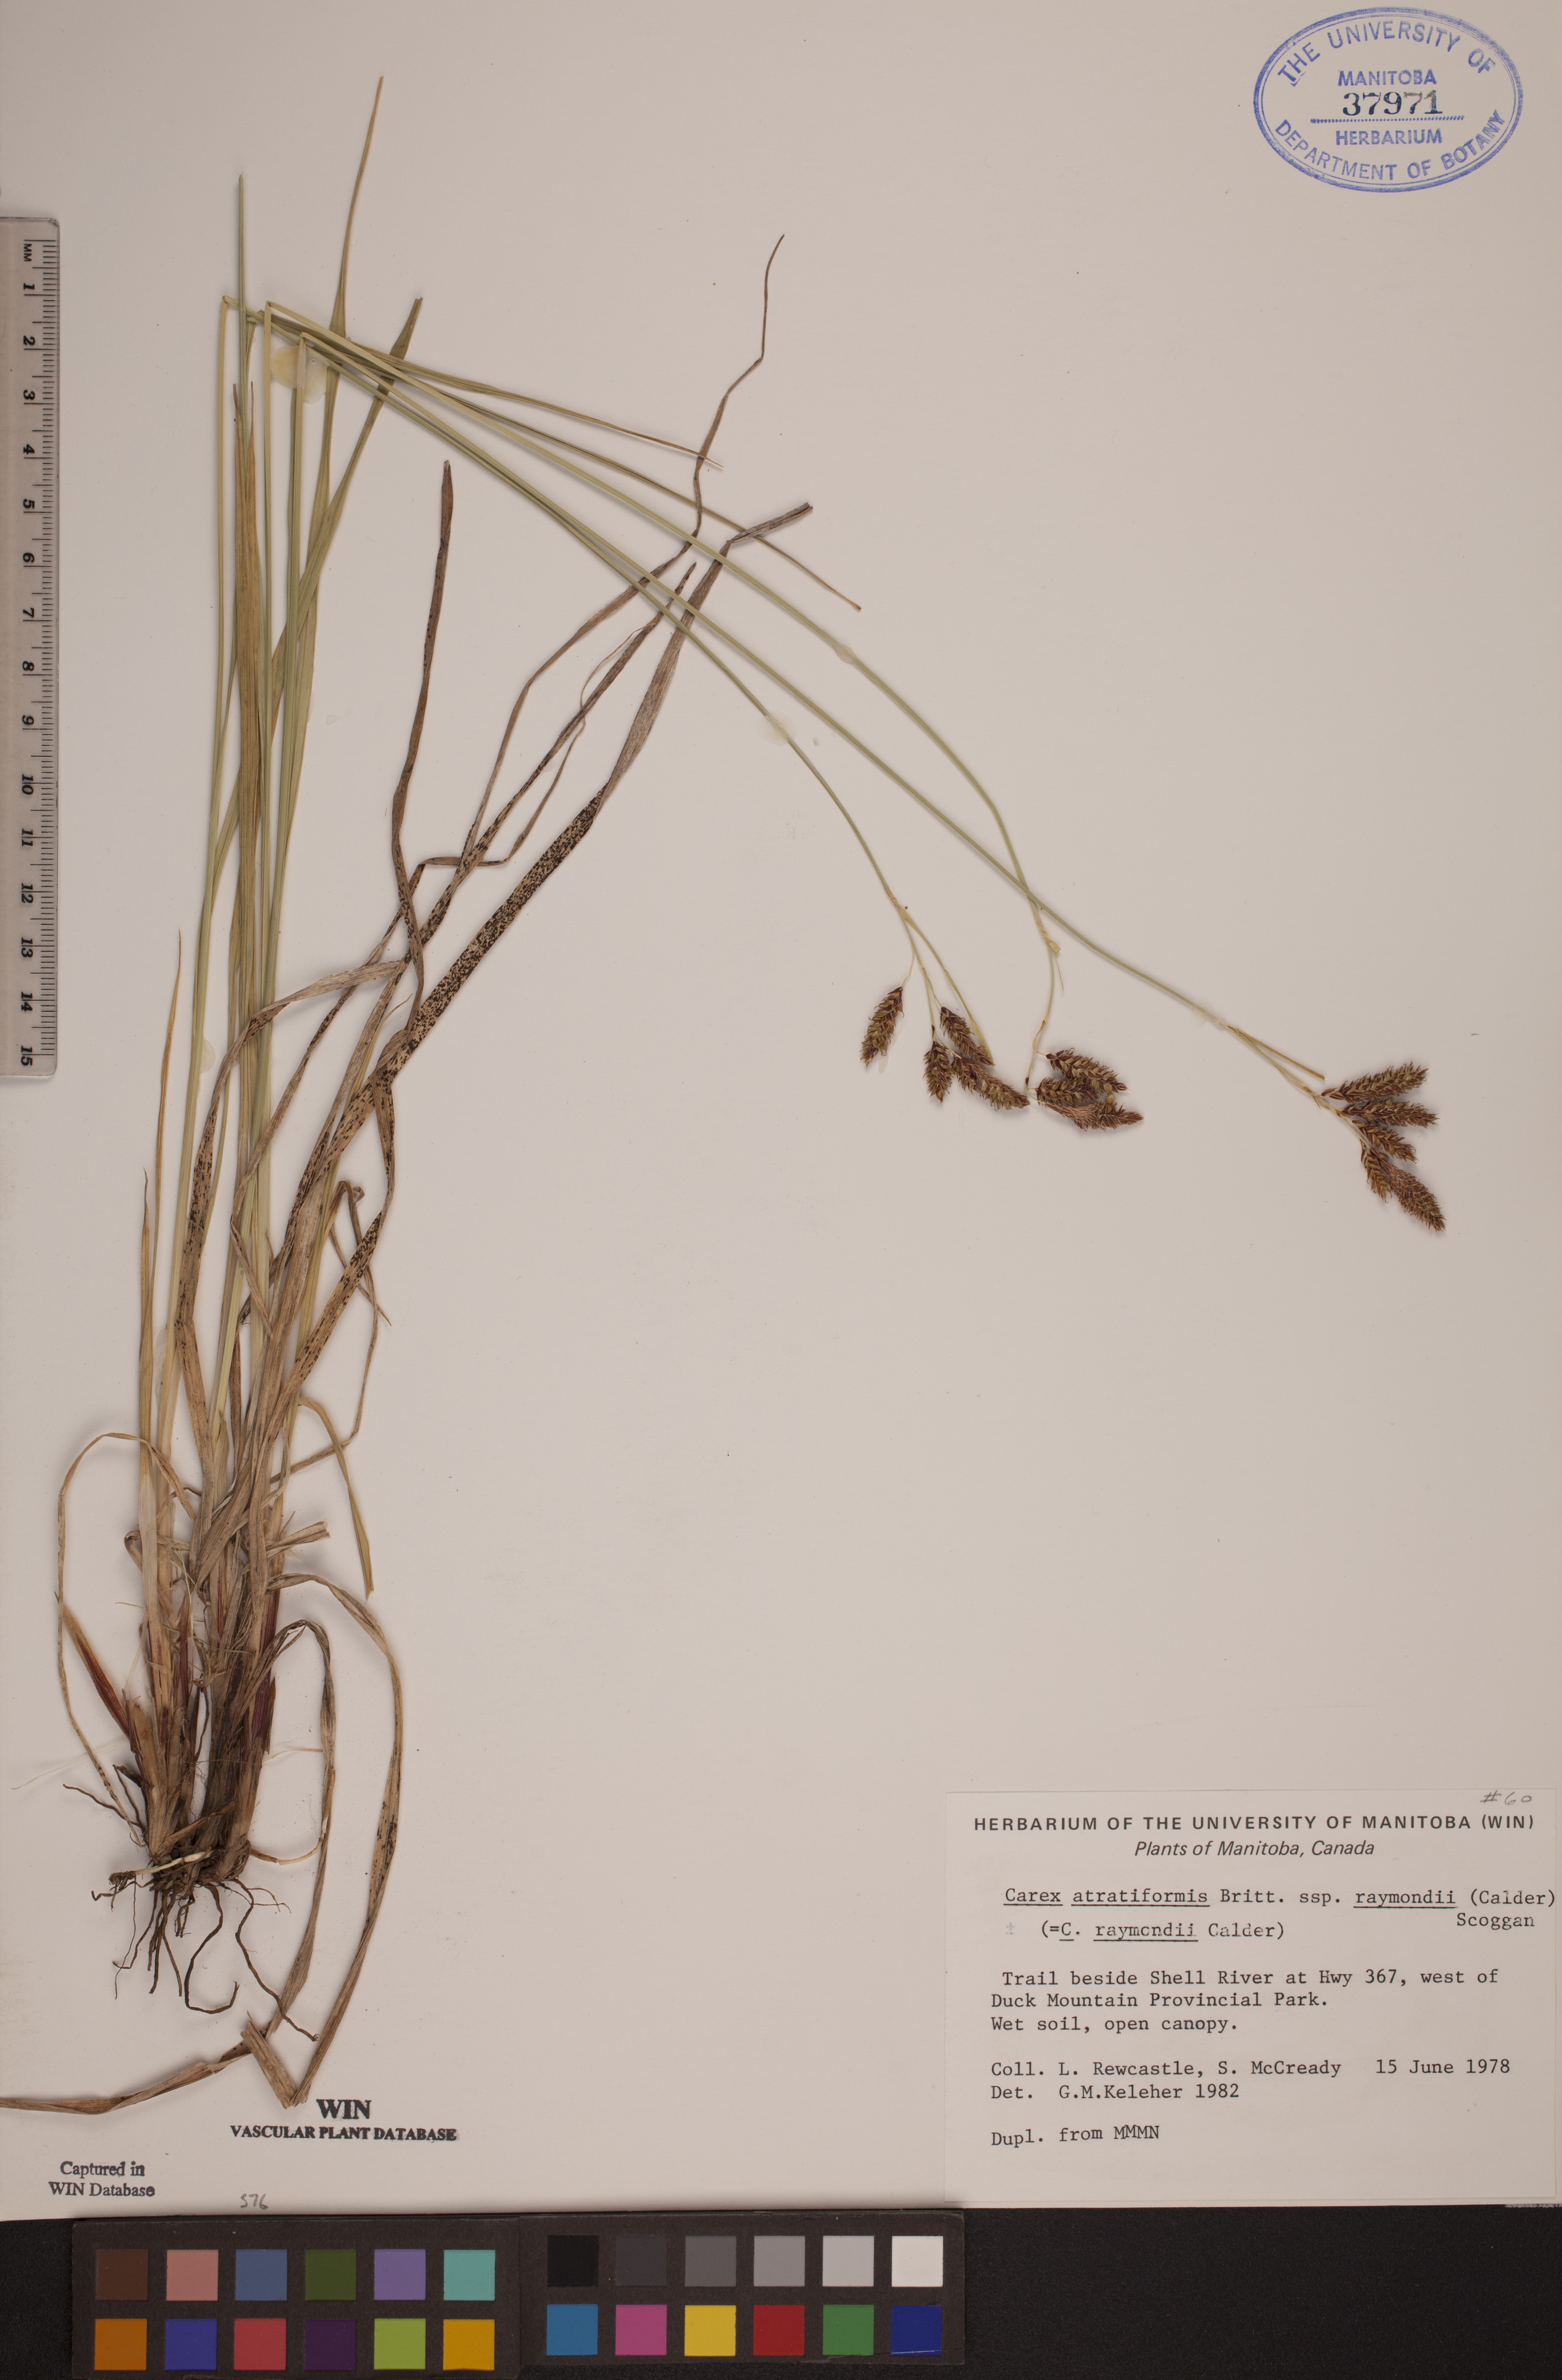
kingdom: Plantae
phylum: Tracheophyta
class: Liliopsida
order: Poales
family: Cyperaceae
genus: Carex
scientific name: Carex atratiformis
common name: Black sedge
